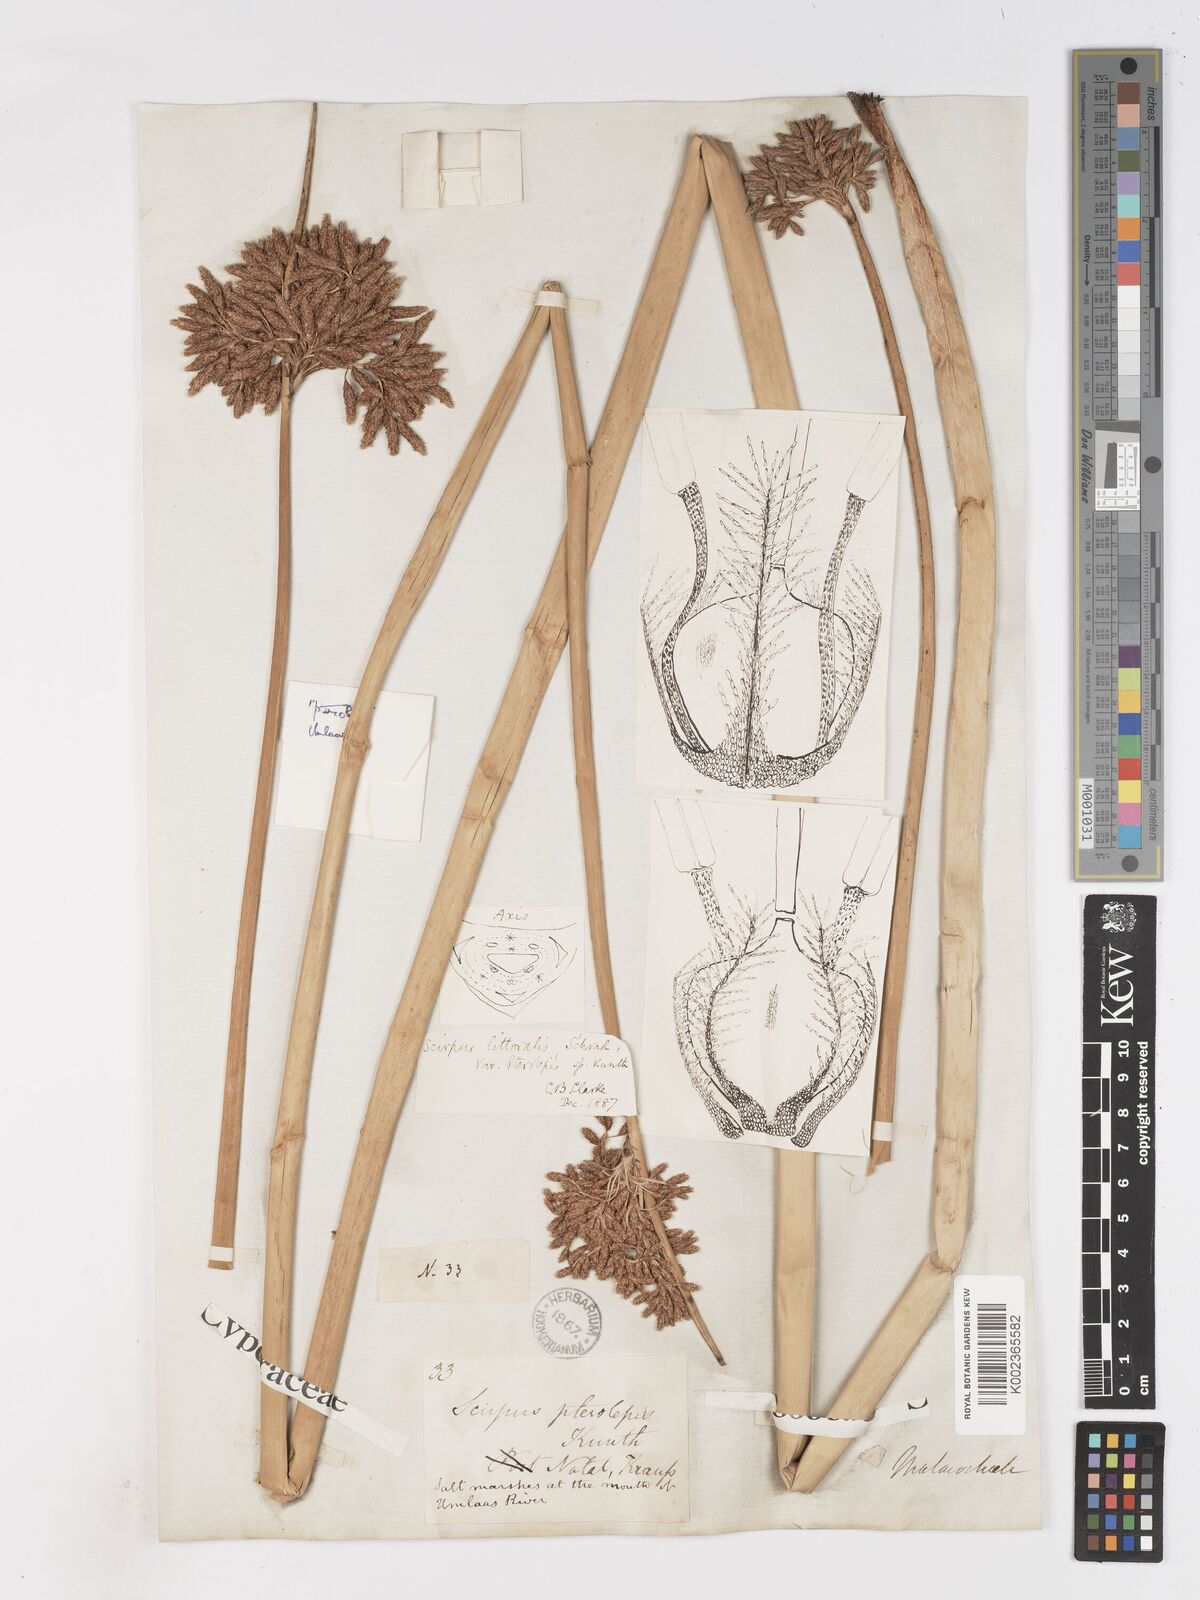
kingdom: Plantae
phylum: Tracheophyta
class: Liliopsida
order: Poales
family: Cyperaceae
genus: Schoenoplectus
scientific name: Schoenoplectus litoralis
